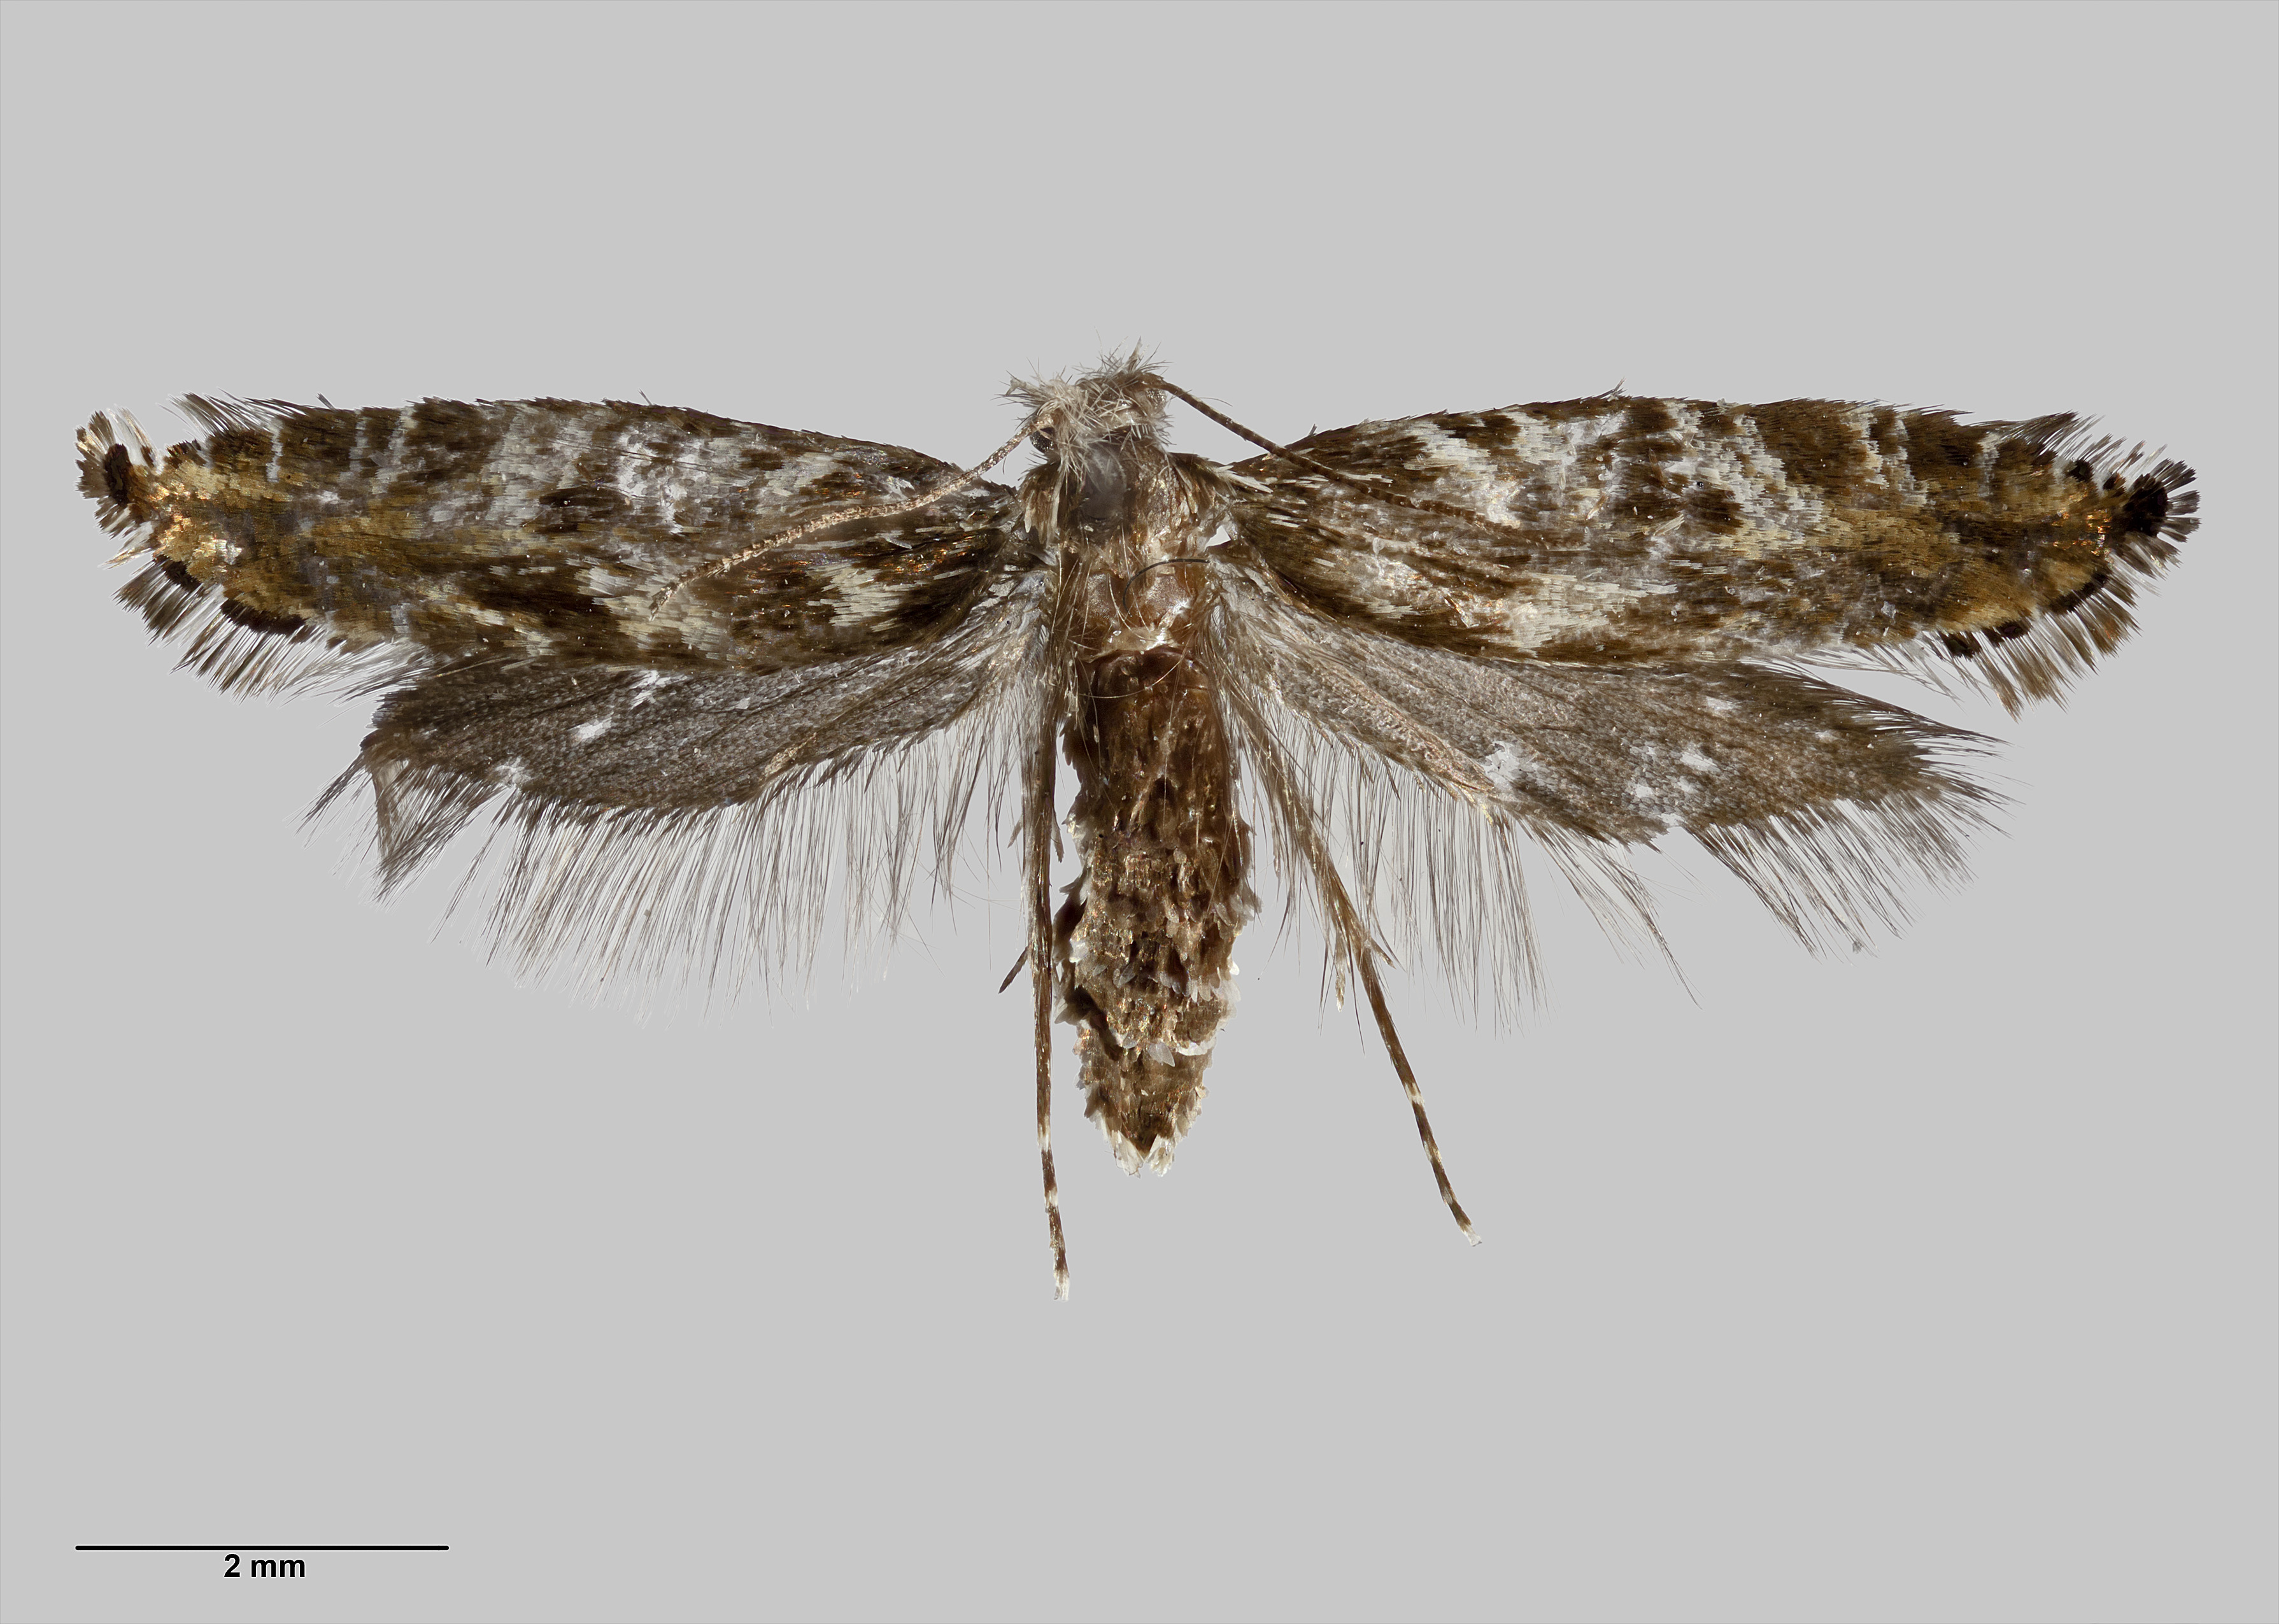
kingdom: Animalia
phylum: Arthropoda
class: Insecta
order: Lepidoptera
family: Tineidae
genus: Tinea
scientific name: Tinea astraea
